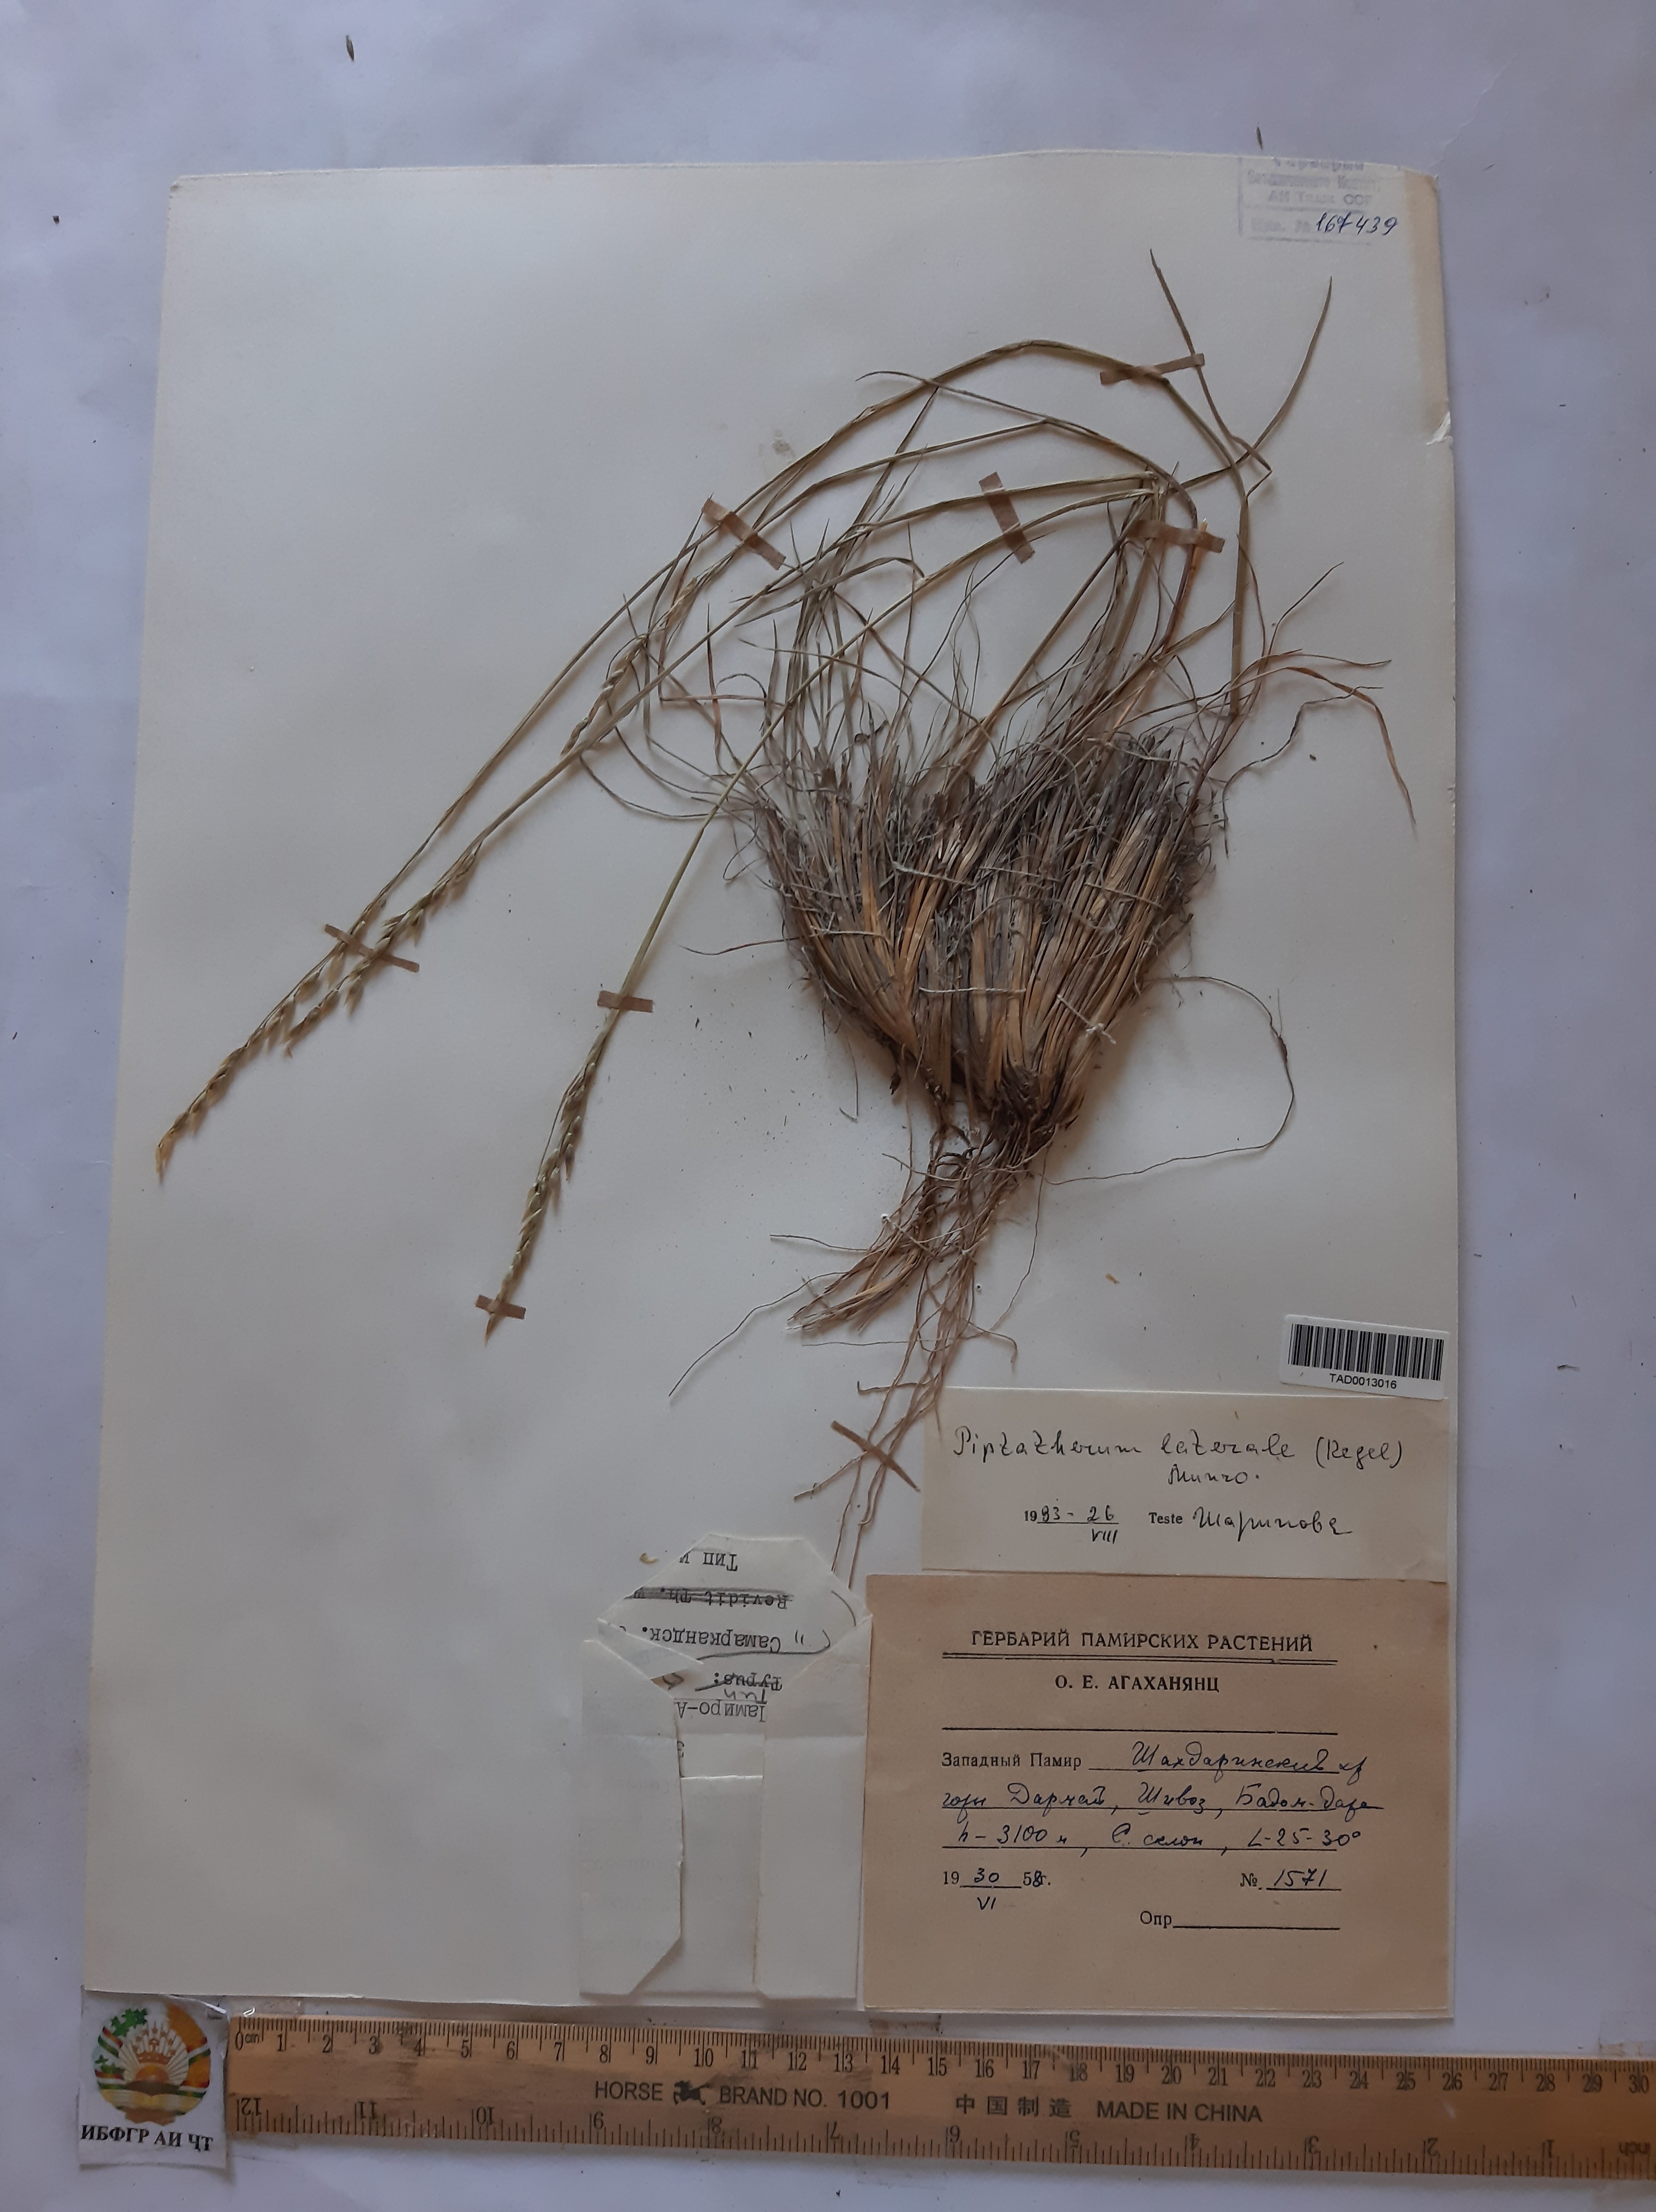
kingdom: Plantae
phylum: Tracheophyta
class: Liliopsida
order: Poales
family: Poaceae
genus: Piptatherum
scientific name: Piptatherum laterale
